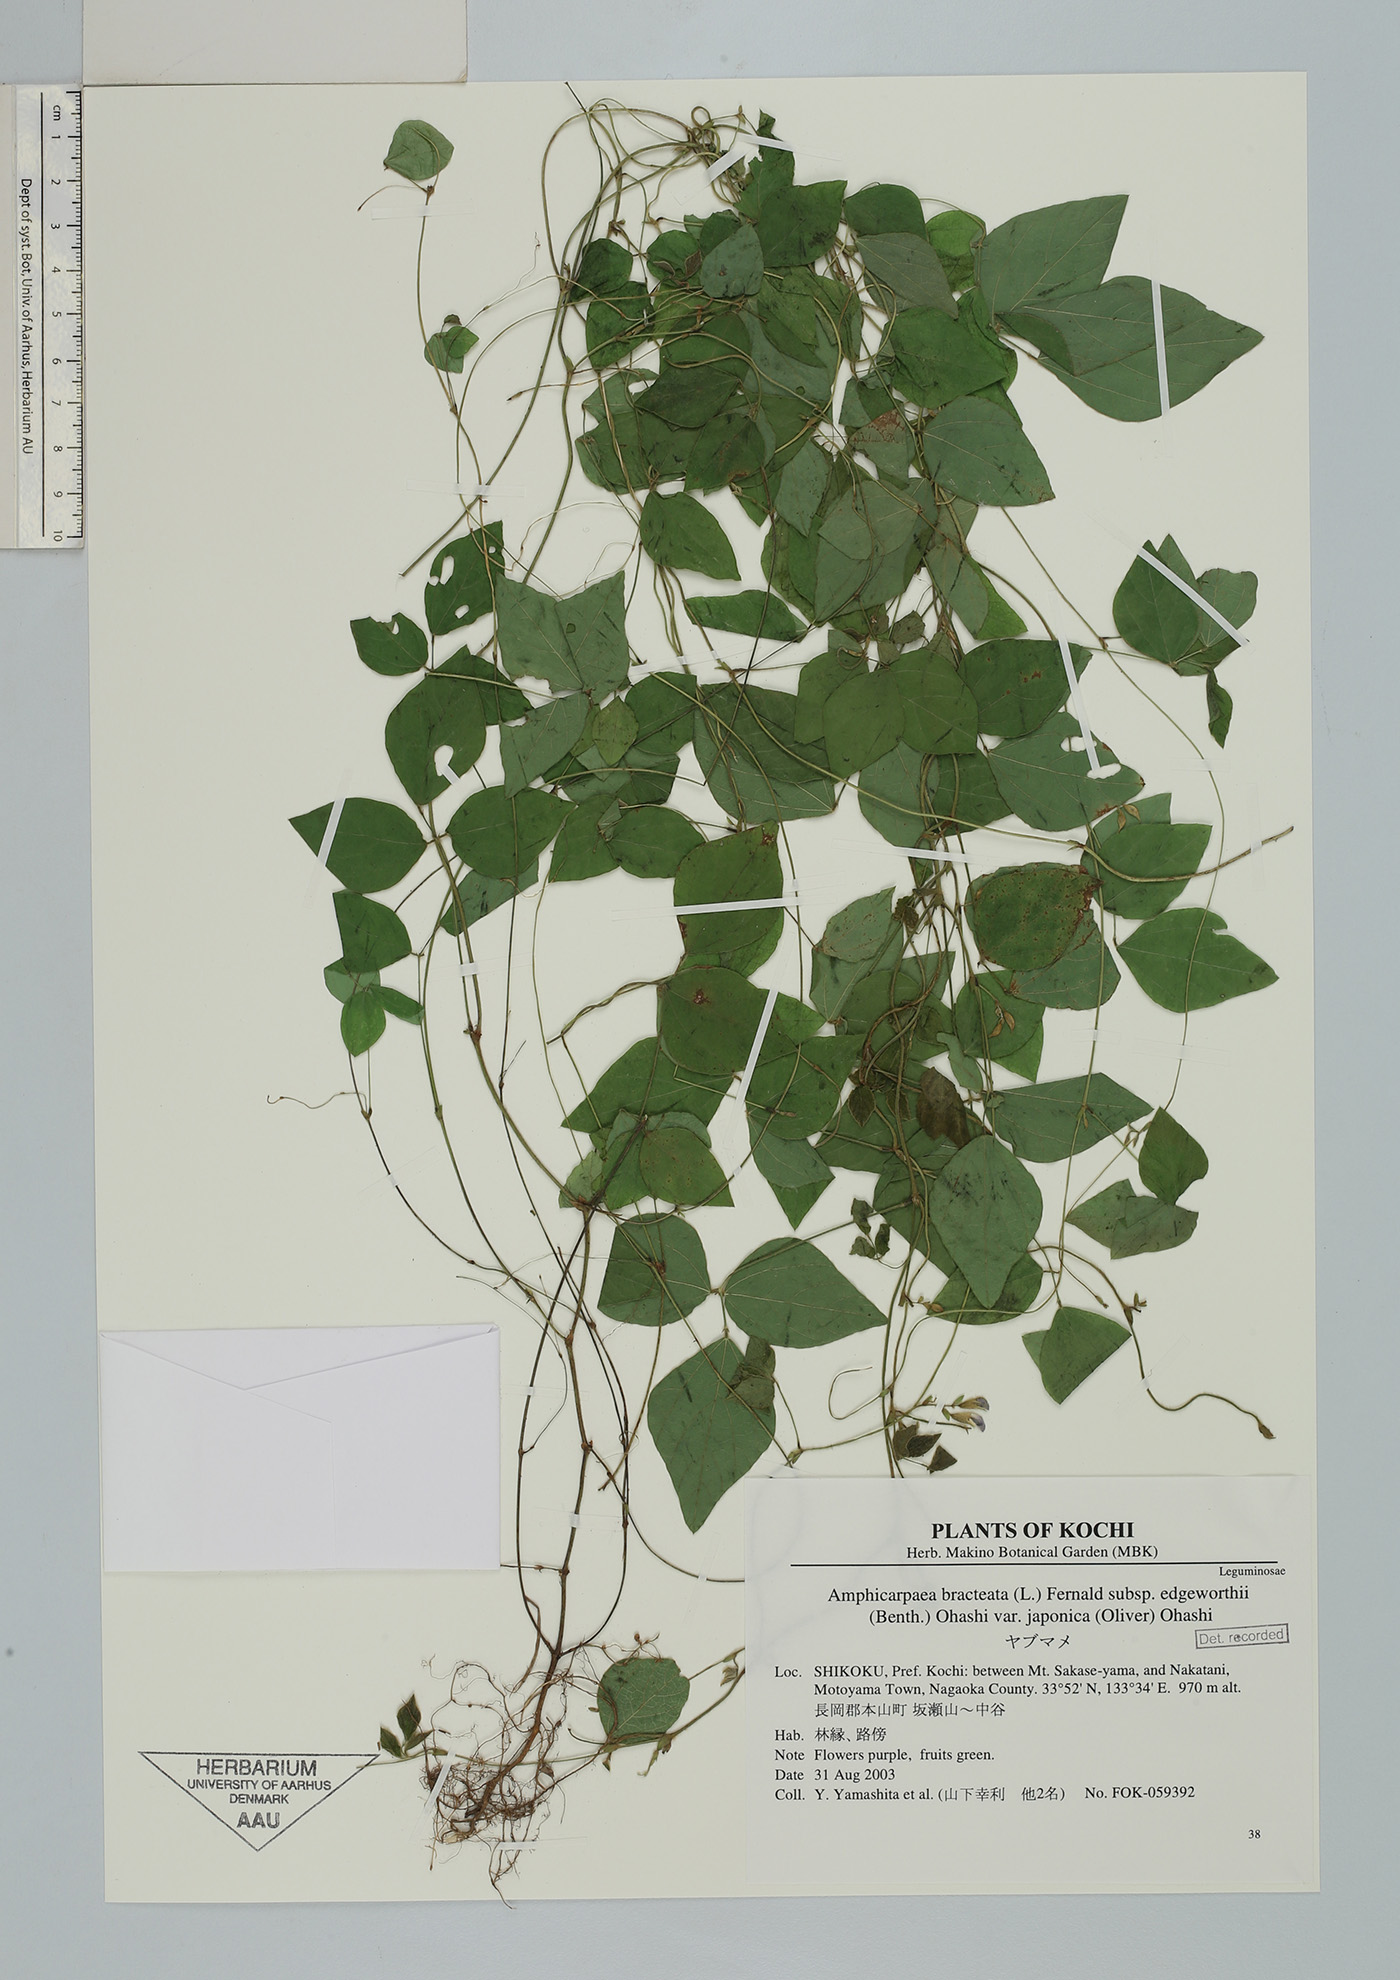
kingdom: Plantae
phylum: Tracheophyta
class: Magnoliopsida
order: Fabales
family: Fabaceae
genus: Amphicarpaea
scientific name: Amphicarpaea edgeworthii
